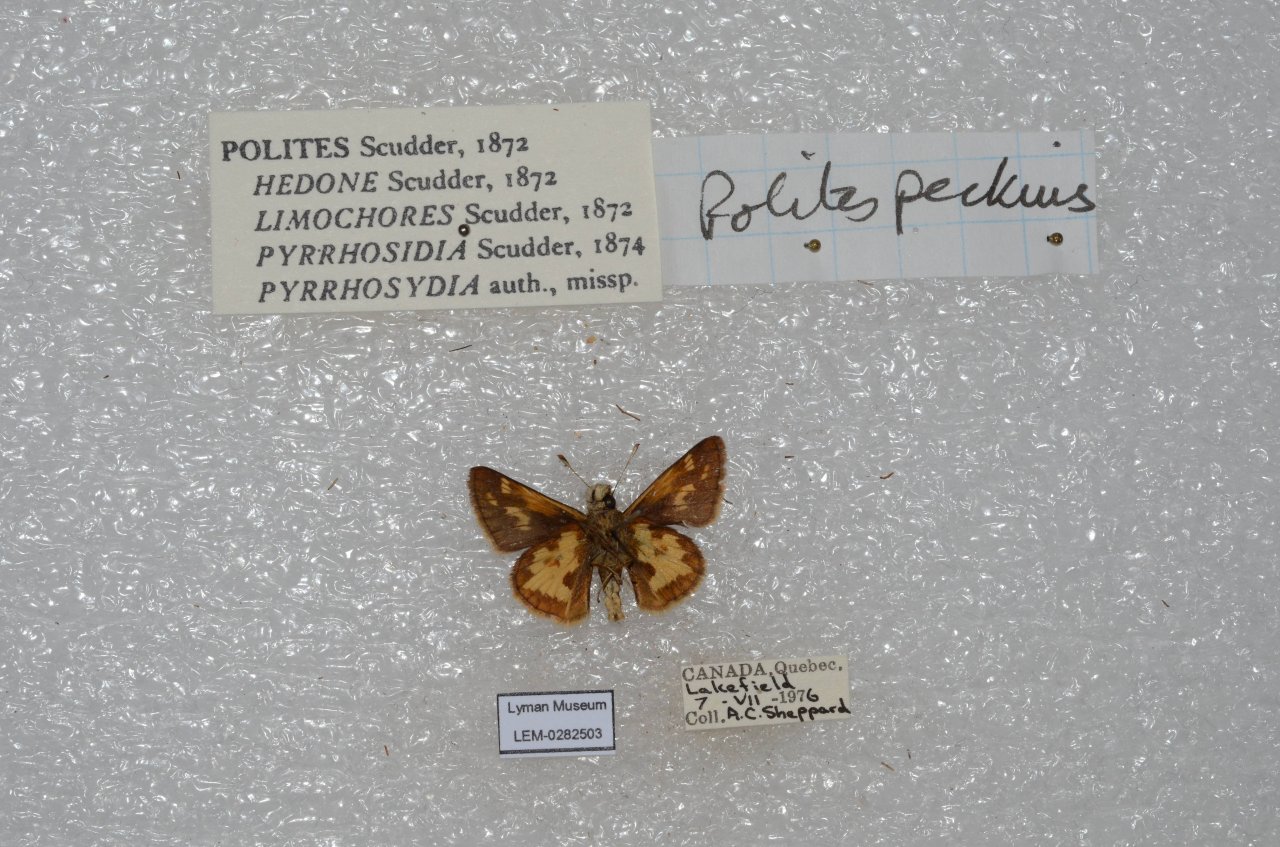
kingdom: Animalia
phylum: Arthropoda
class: Insecta
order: Lepidoptera
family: Hesperiidae
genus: Polites
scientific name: Polites coras
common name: Peck's Skipper
